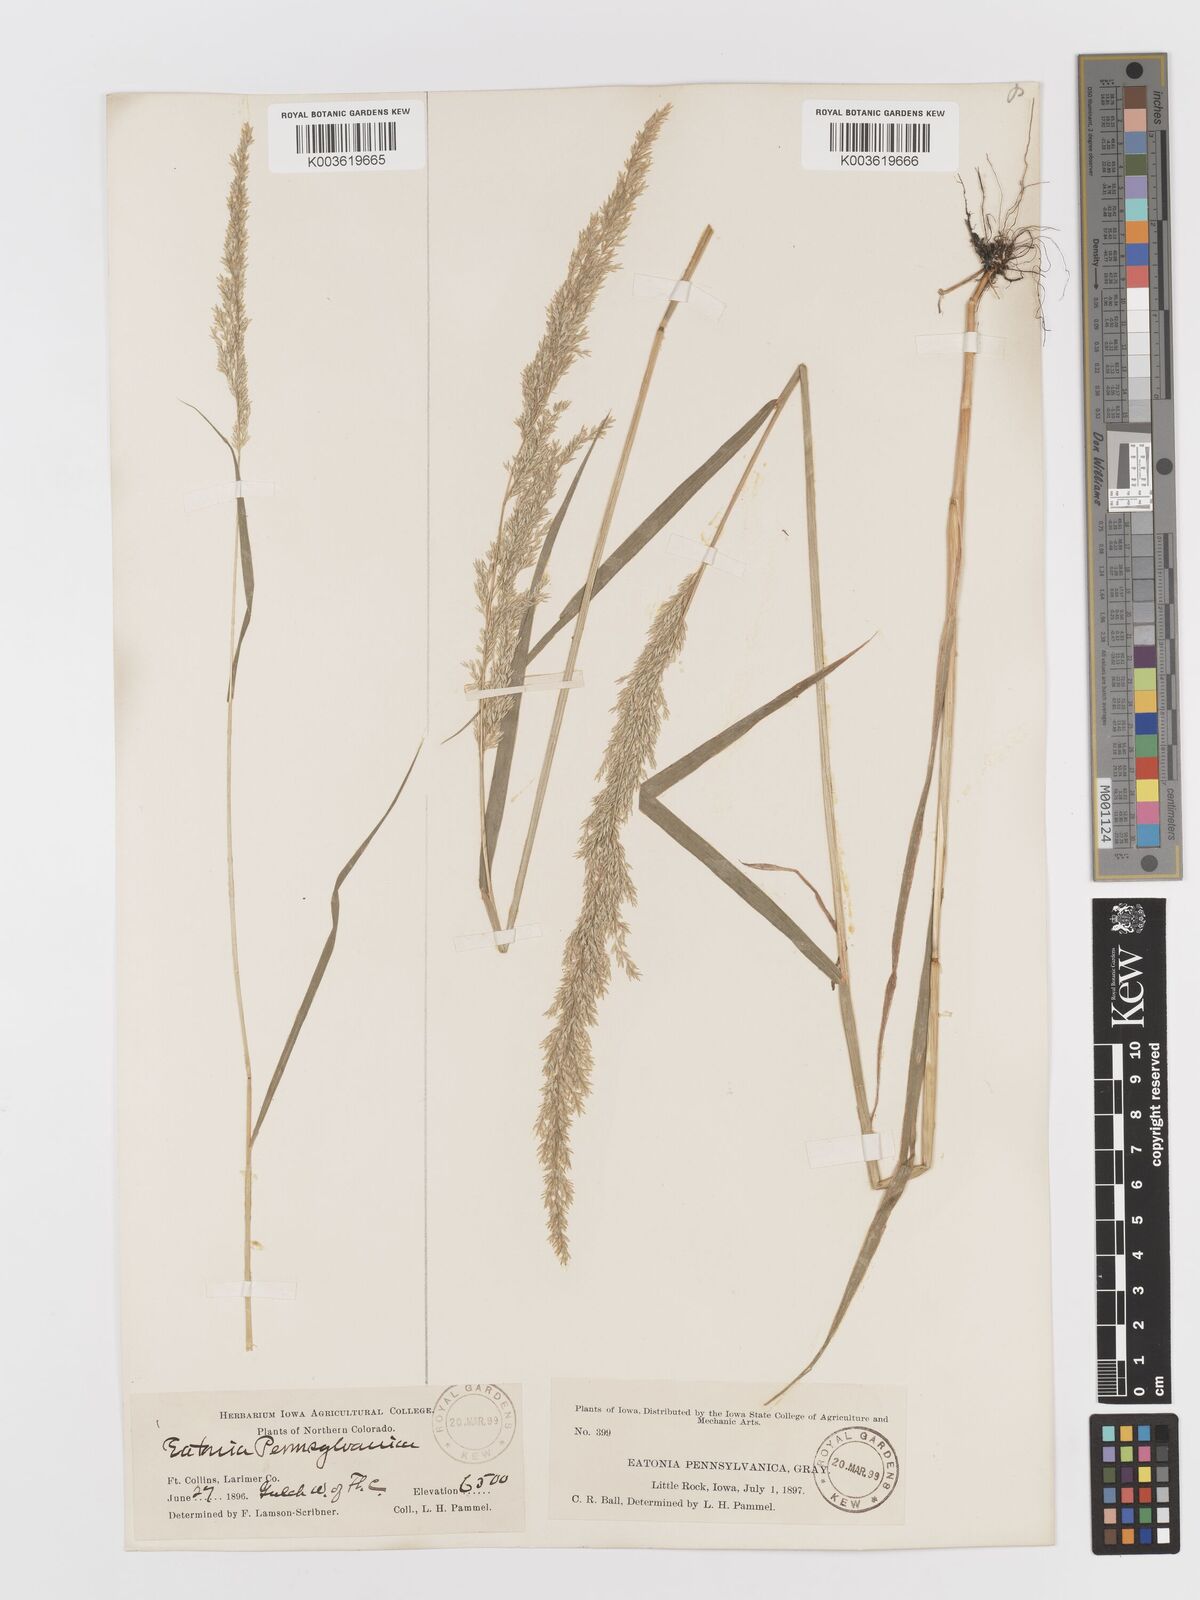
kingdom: Plantae
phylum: Tracheophyta
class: Liliopsida
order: Poales
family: Poaceae
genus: Sphenopholis
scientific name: Sphenopholis obtusata
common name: Prairie grass
